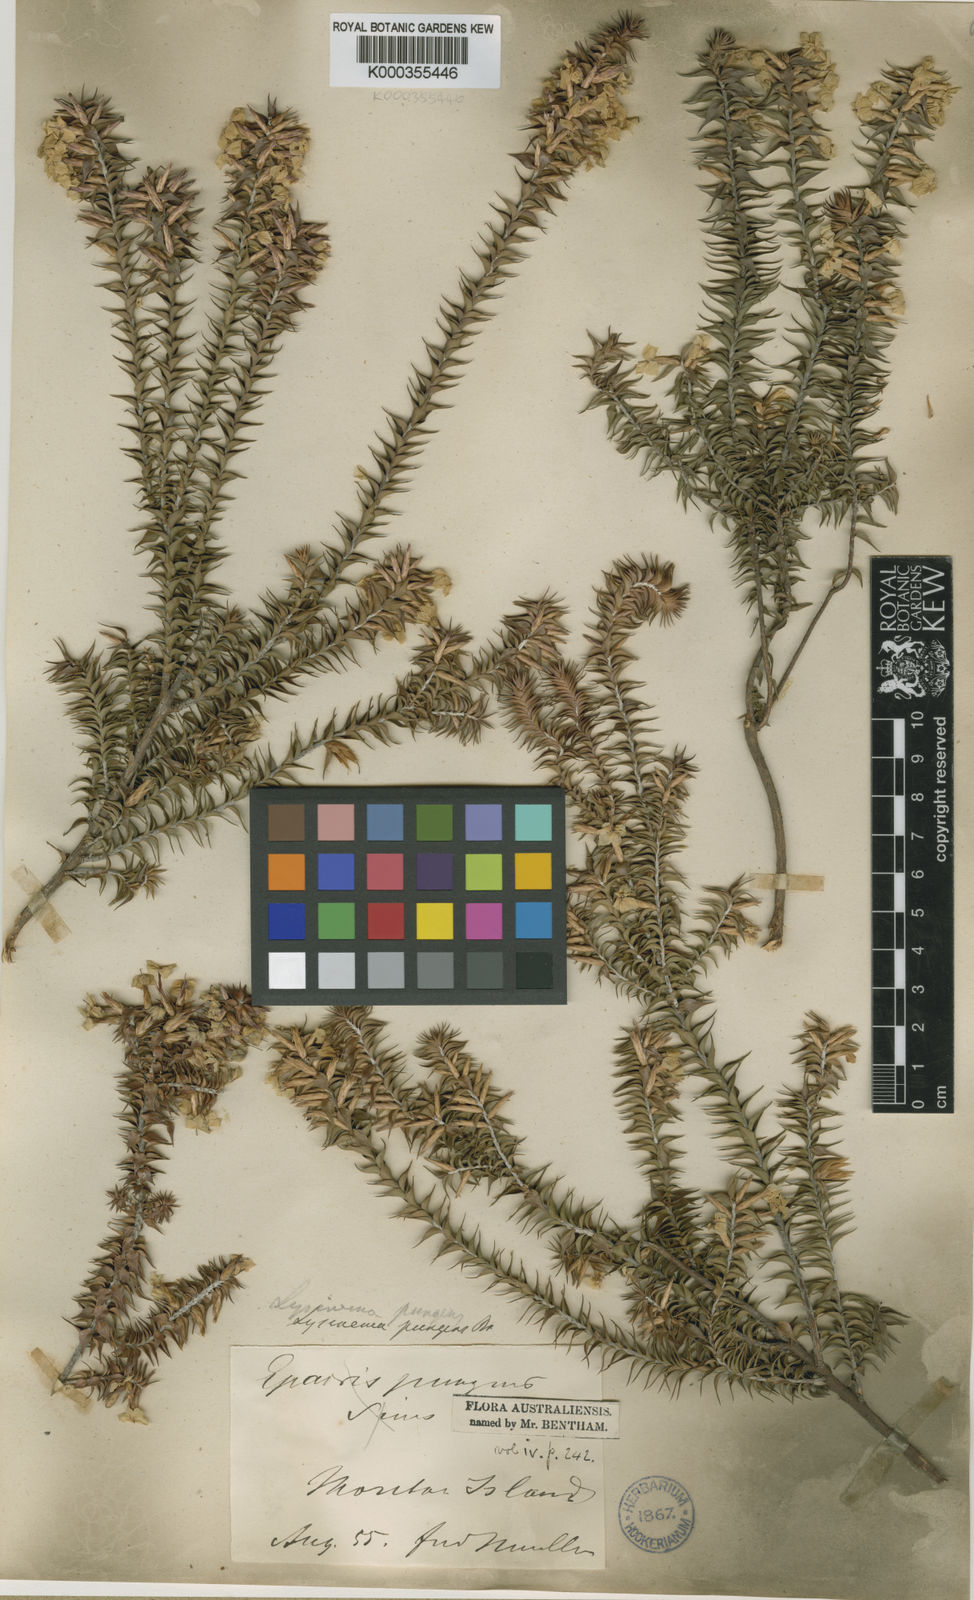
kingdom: Plantae
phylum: Tracheophyta
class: Magnoliopsida
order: Ericales
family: Ericaceae
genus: Woollsia
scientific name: Woollsia pungens
